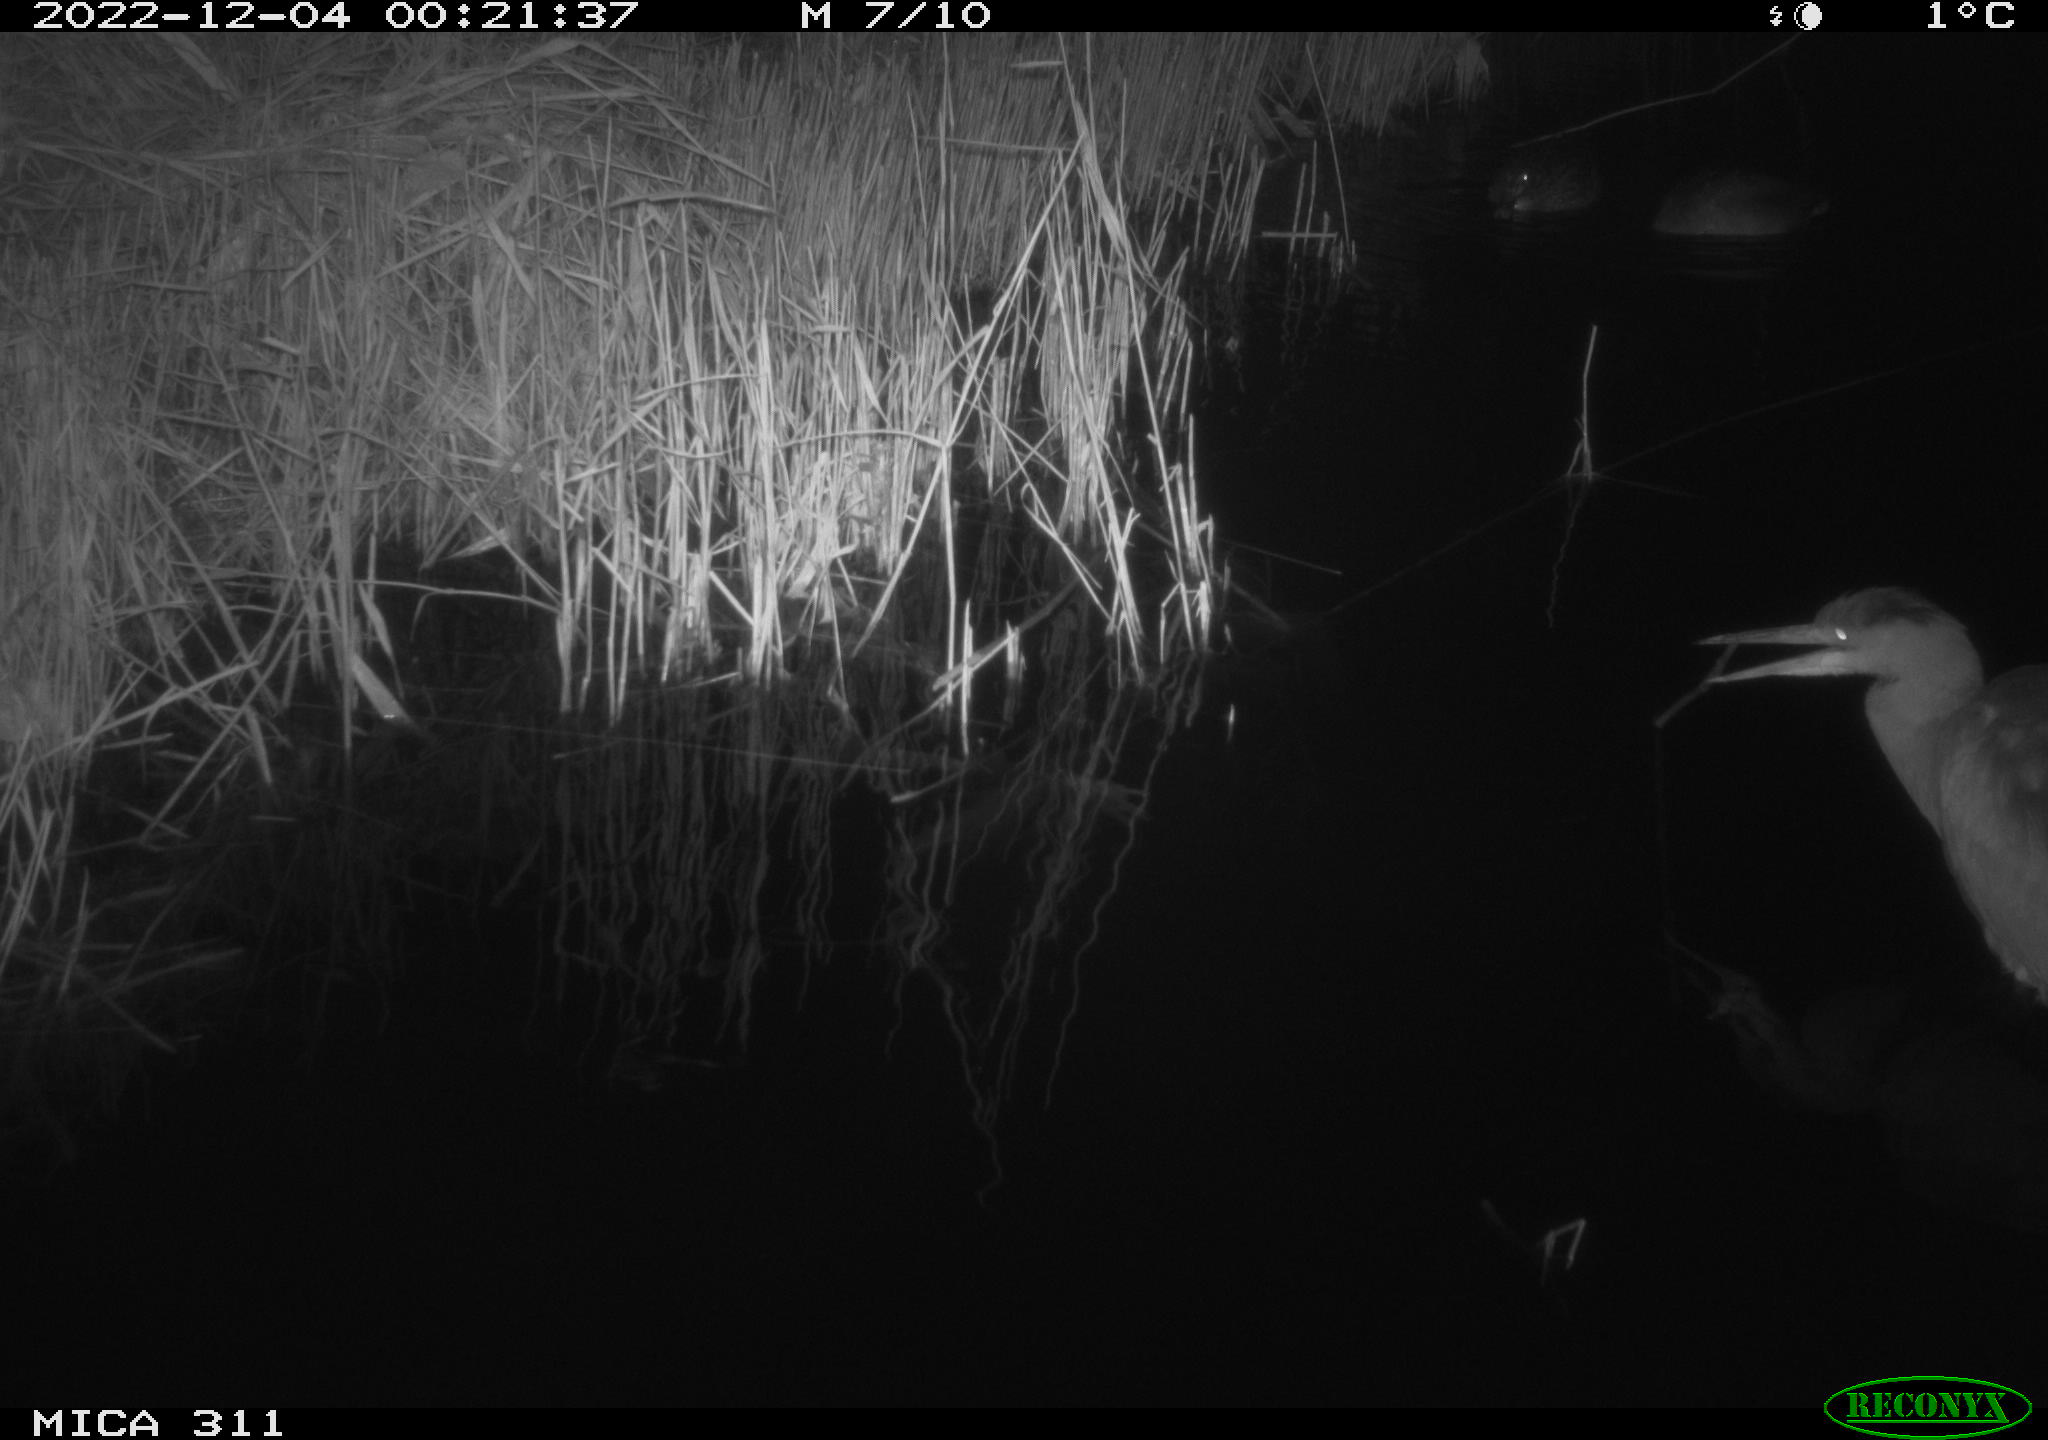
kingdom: Animalia
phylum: Chordata
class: Aves
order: Anseriformes
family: Anatidae
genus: Anas
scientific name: Anas
